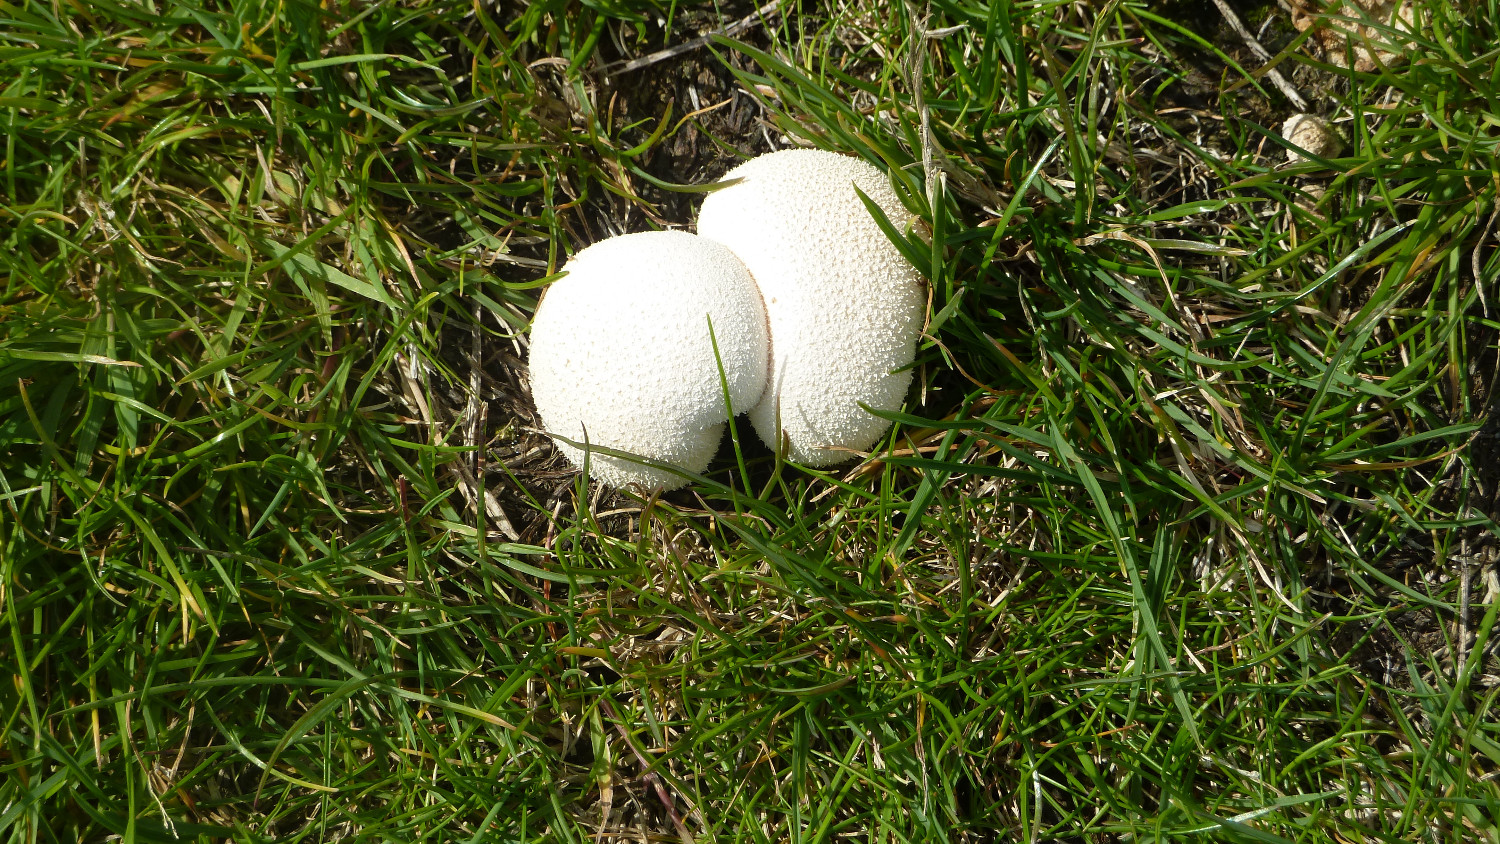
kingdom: Fungi
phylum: Basidiomycota
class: Agaricomycetes
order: Agaricales
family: Lycoperdaceae
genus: Lycoperdon
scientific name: Lycoperdon pratense
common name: flad støvbold
